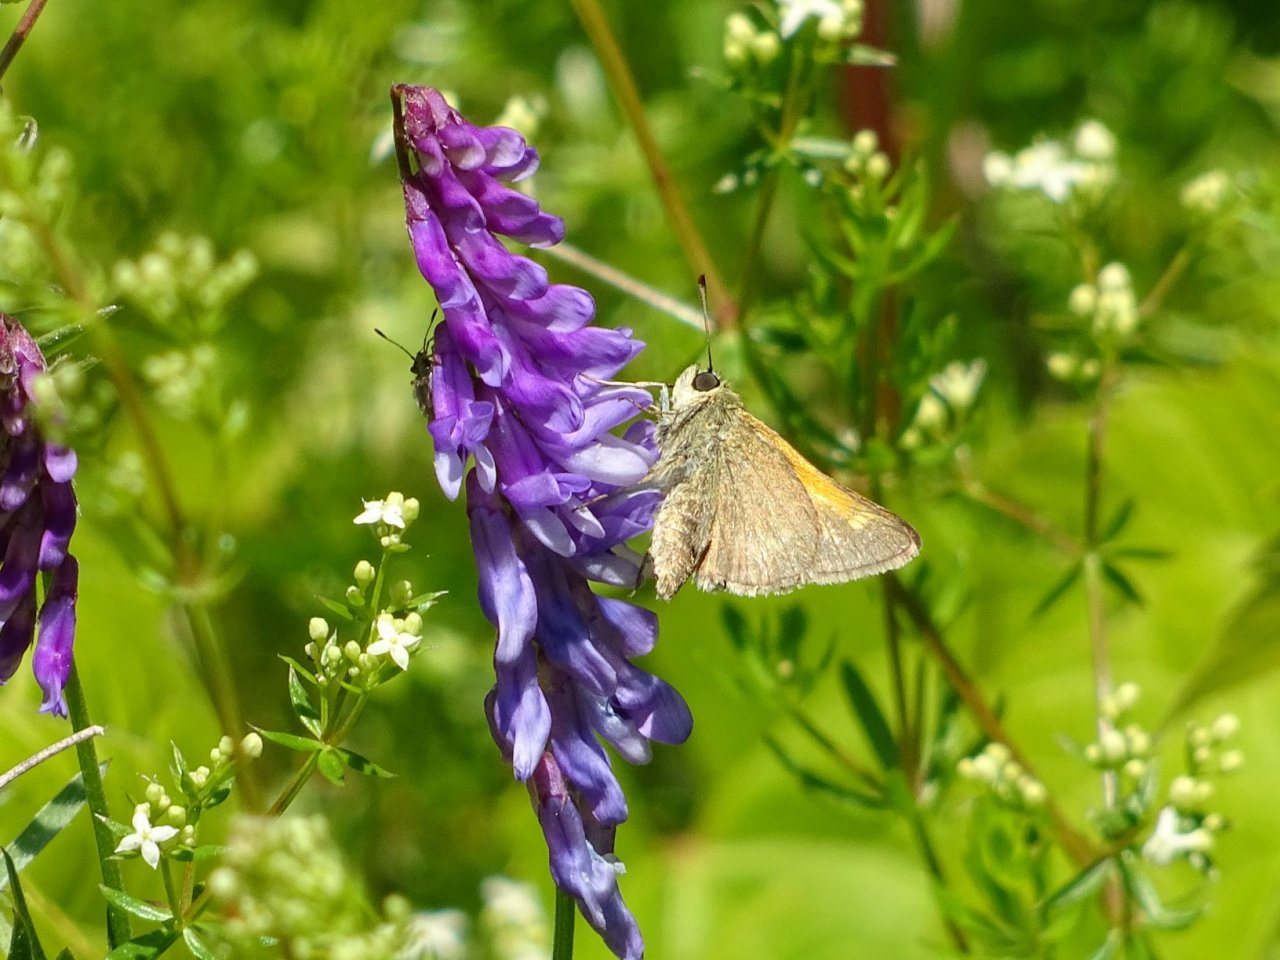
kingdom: Animalia
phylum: Arthropoda
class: Insecta
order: Lepidoptera
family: Hesperiidae
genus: Polites
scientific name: Polites themistocles
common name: Tawny-edged Skipper
